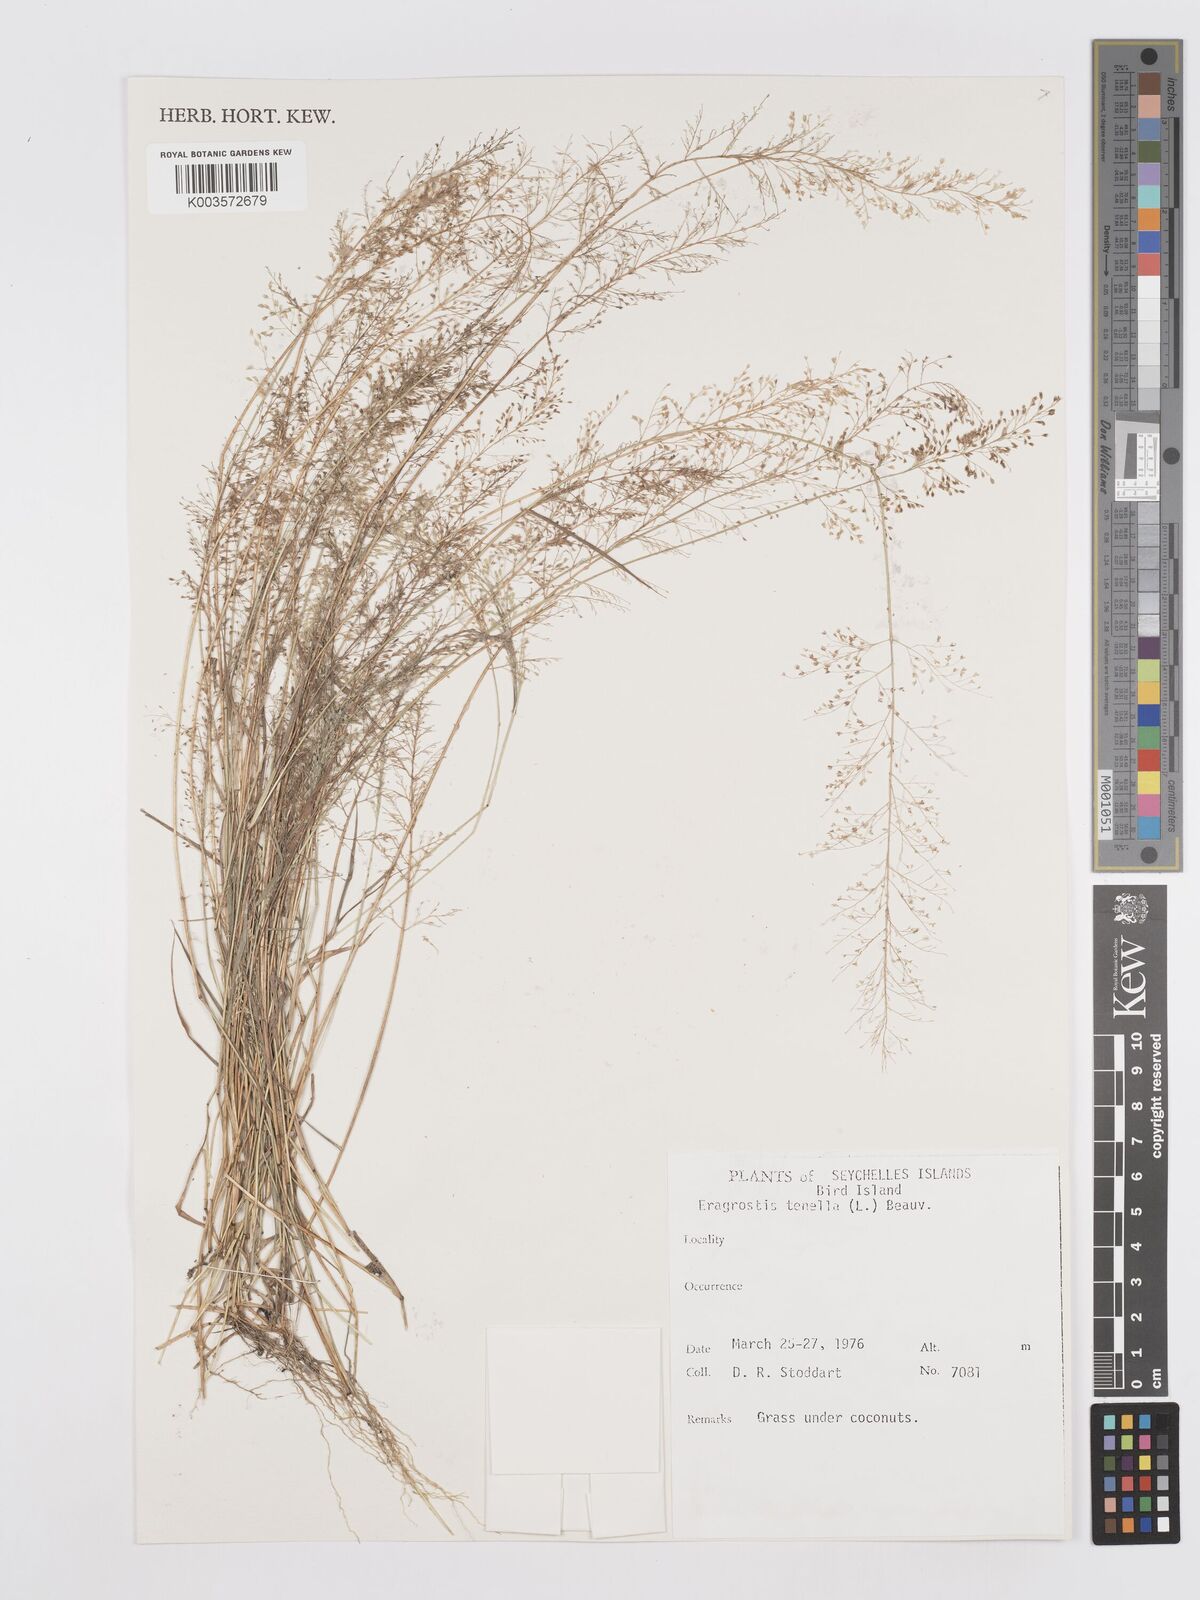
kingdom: Plantae
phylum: Tracheophyta
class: Liliopsida
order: Poales
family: Poaceae
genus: Eragrostis
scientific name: Eragrostis tenella
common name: Japanese lovegrass
